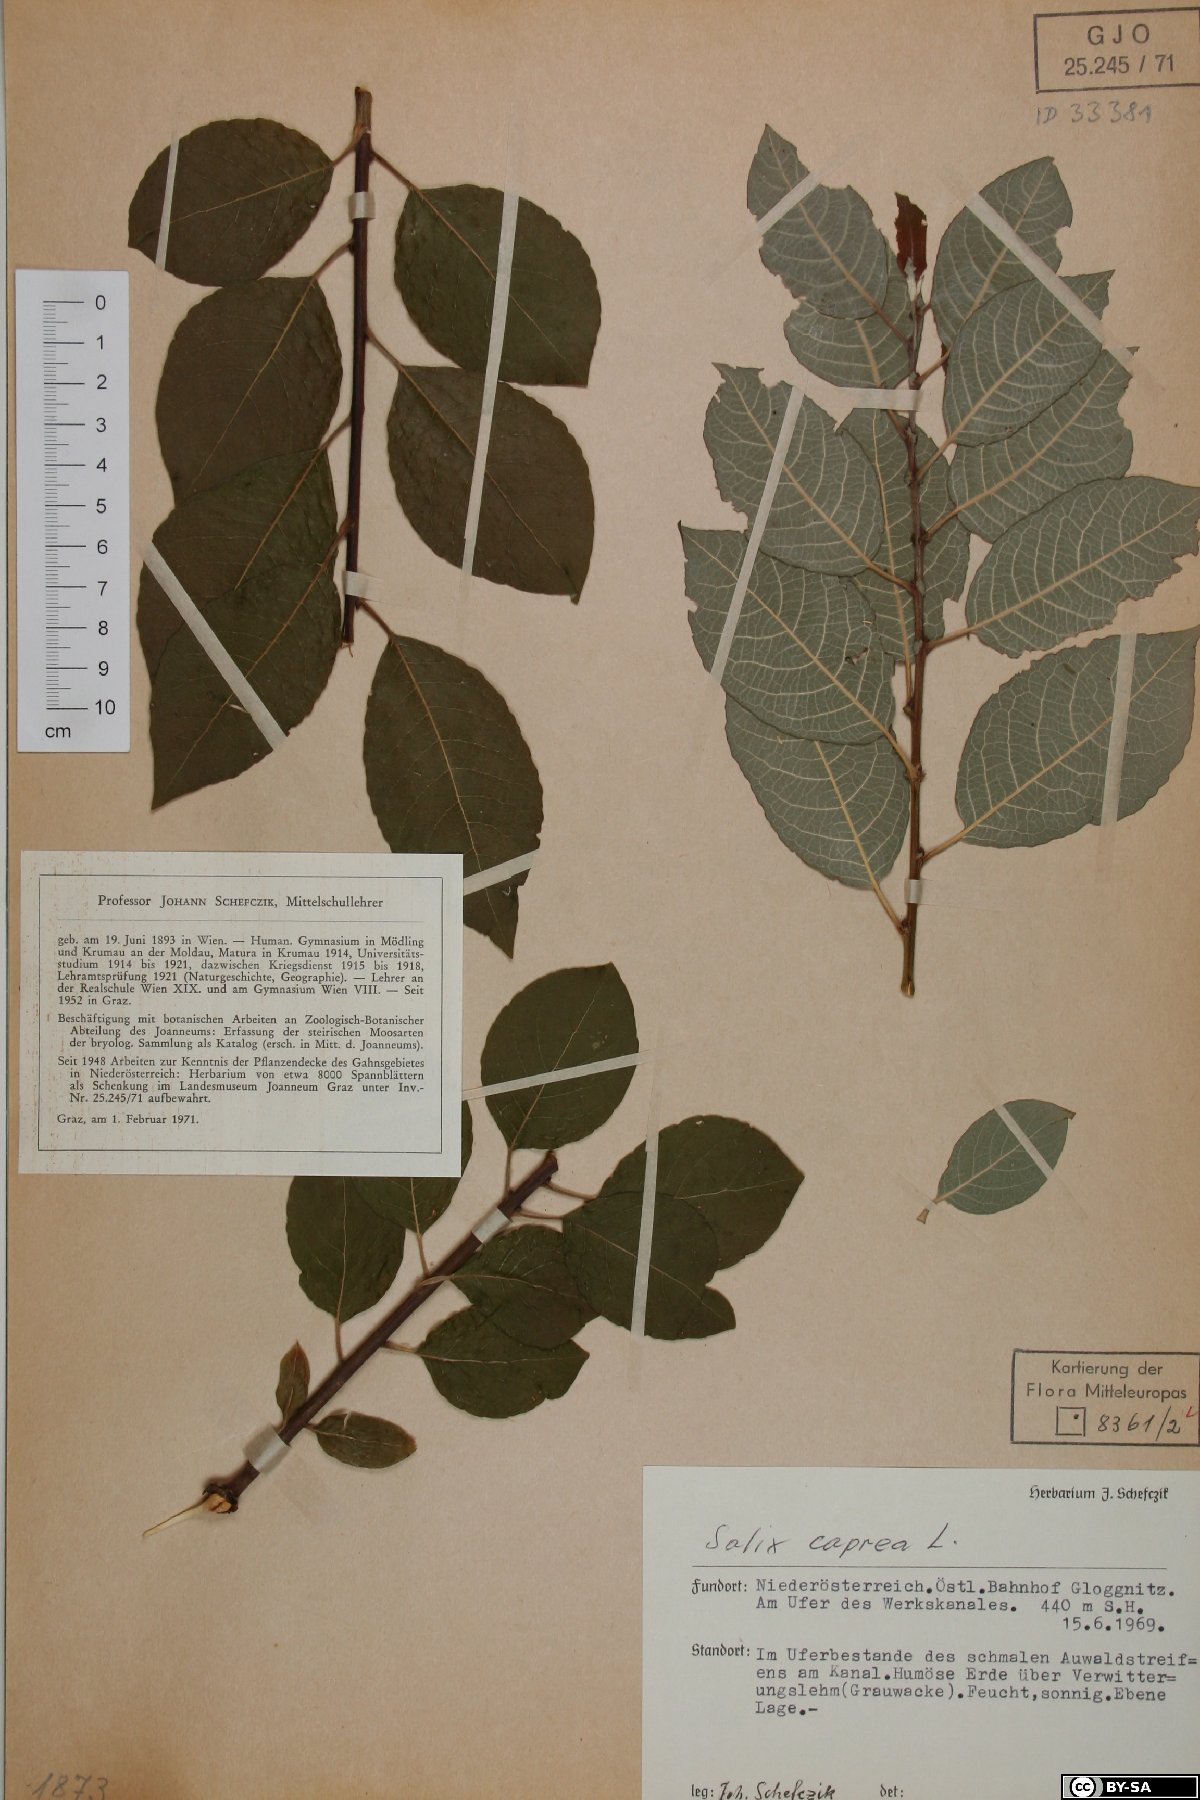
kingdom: Plantae
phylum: Tracheophyta
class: Magnoliopsida
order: Malpighiales
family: Salicaceae
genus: Salix
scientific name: Salix caprea
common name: Goat willow
